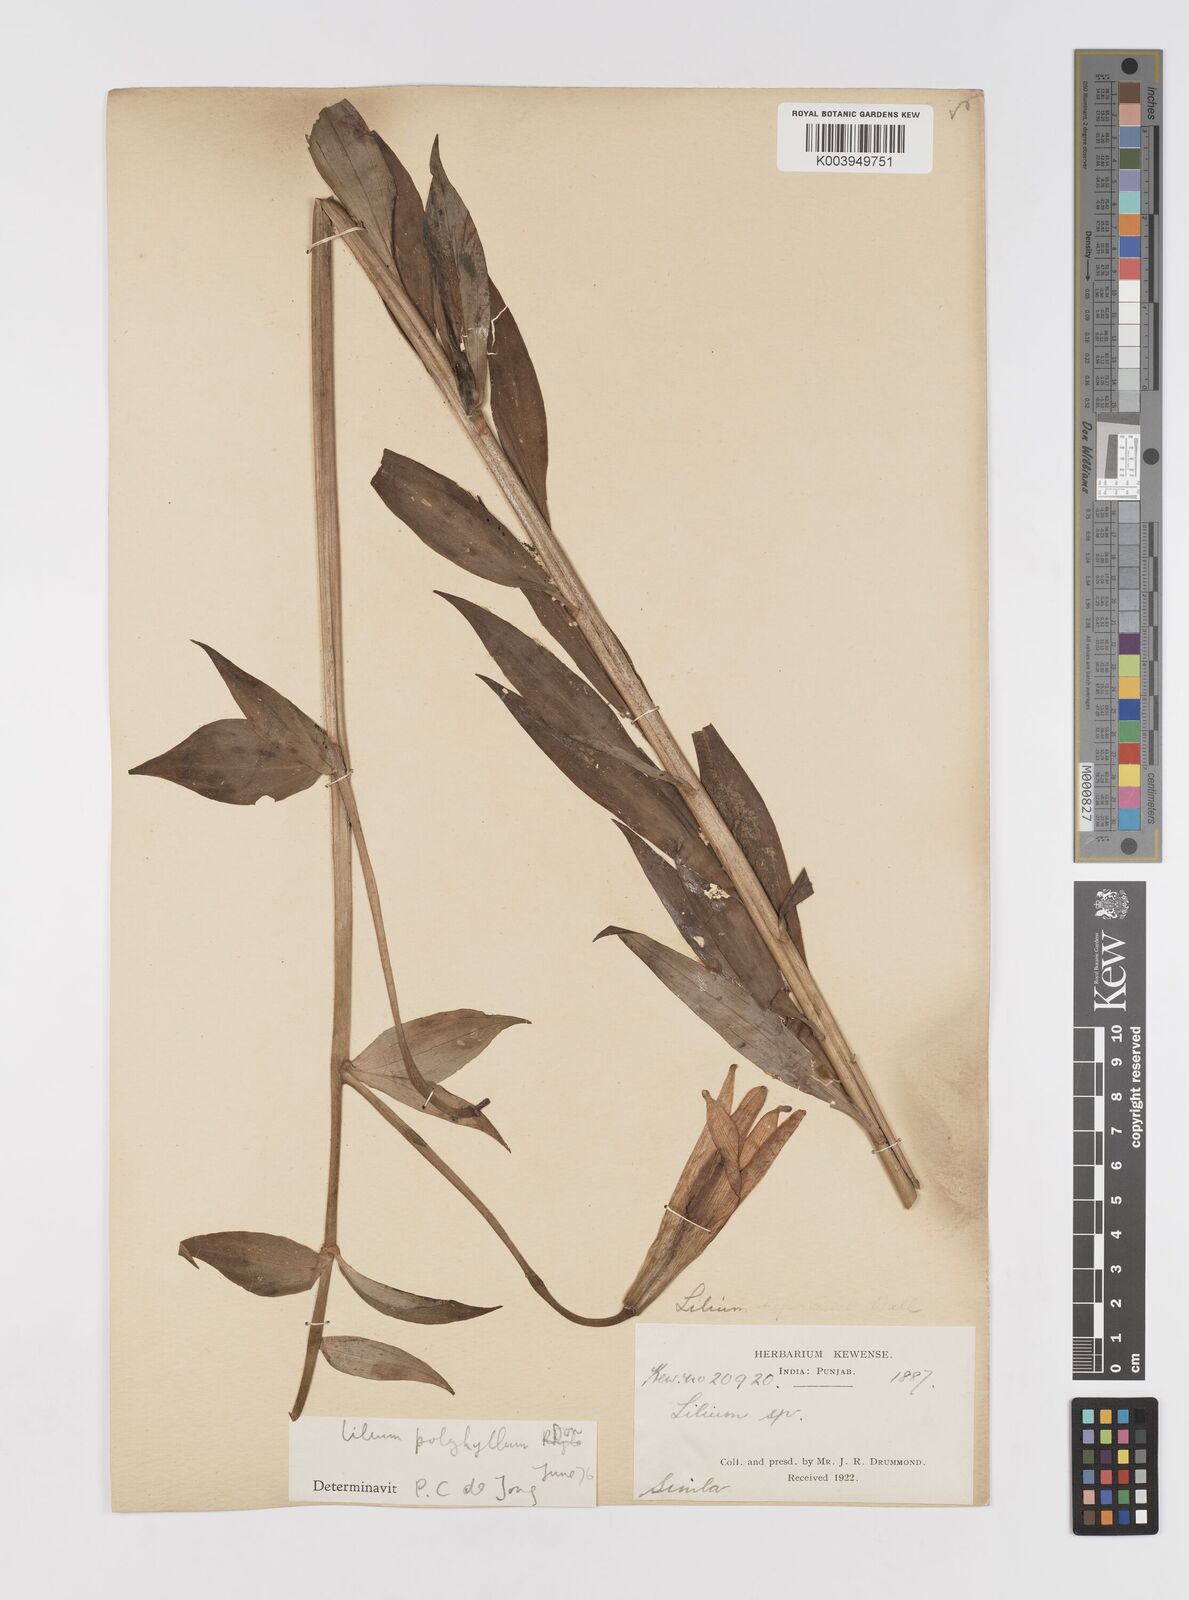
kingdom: Plantae
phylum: Tracheophyta
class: Liliopsida
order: Liliales
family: Liliaceae
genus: Lilium
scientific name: Lilium polyphyllum
